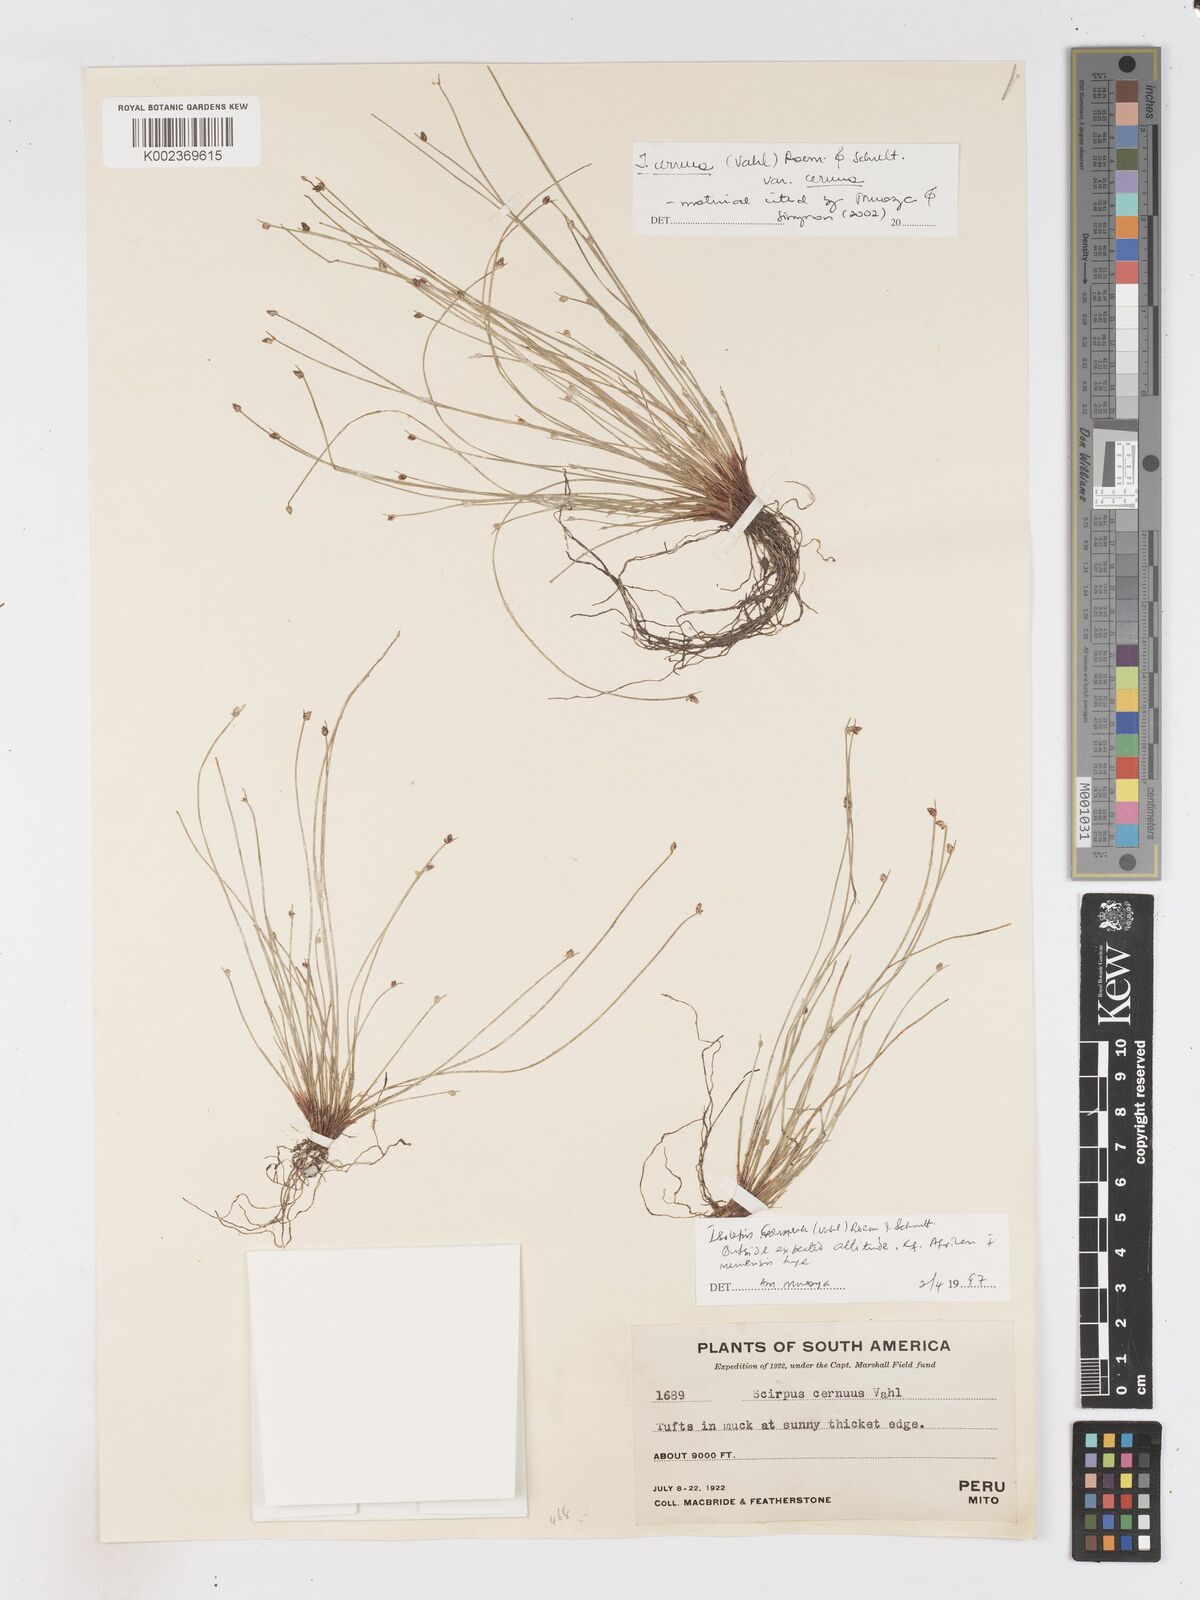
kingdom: Plantae
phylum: Tracheophyta
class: Liliopsida
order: Poales
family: Cyperaceae
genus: Isolepis
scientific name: Isolepis cernua
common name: Slender club-rush
